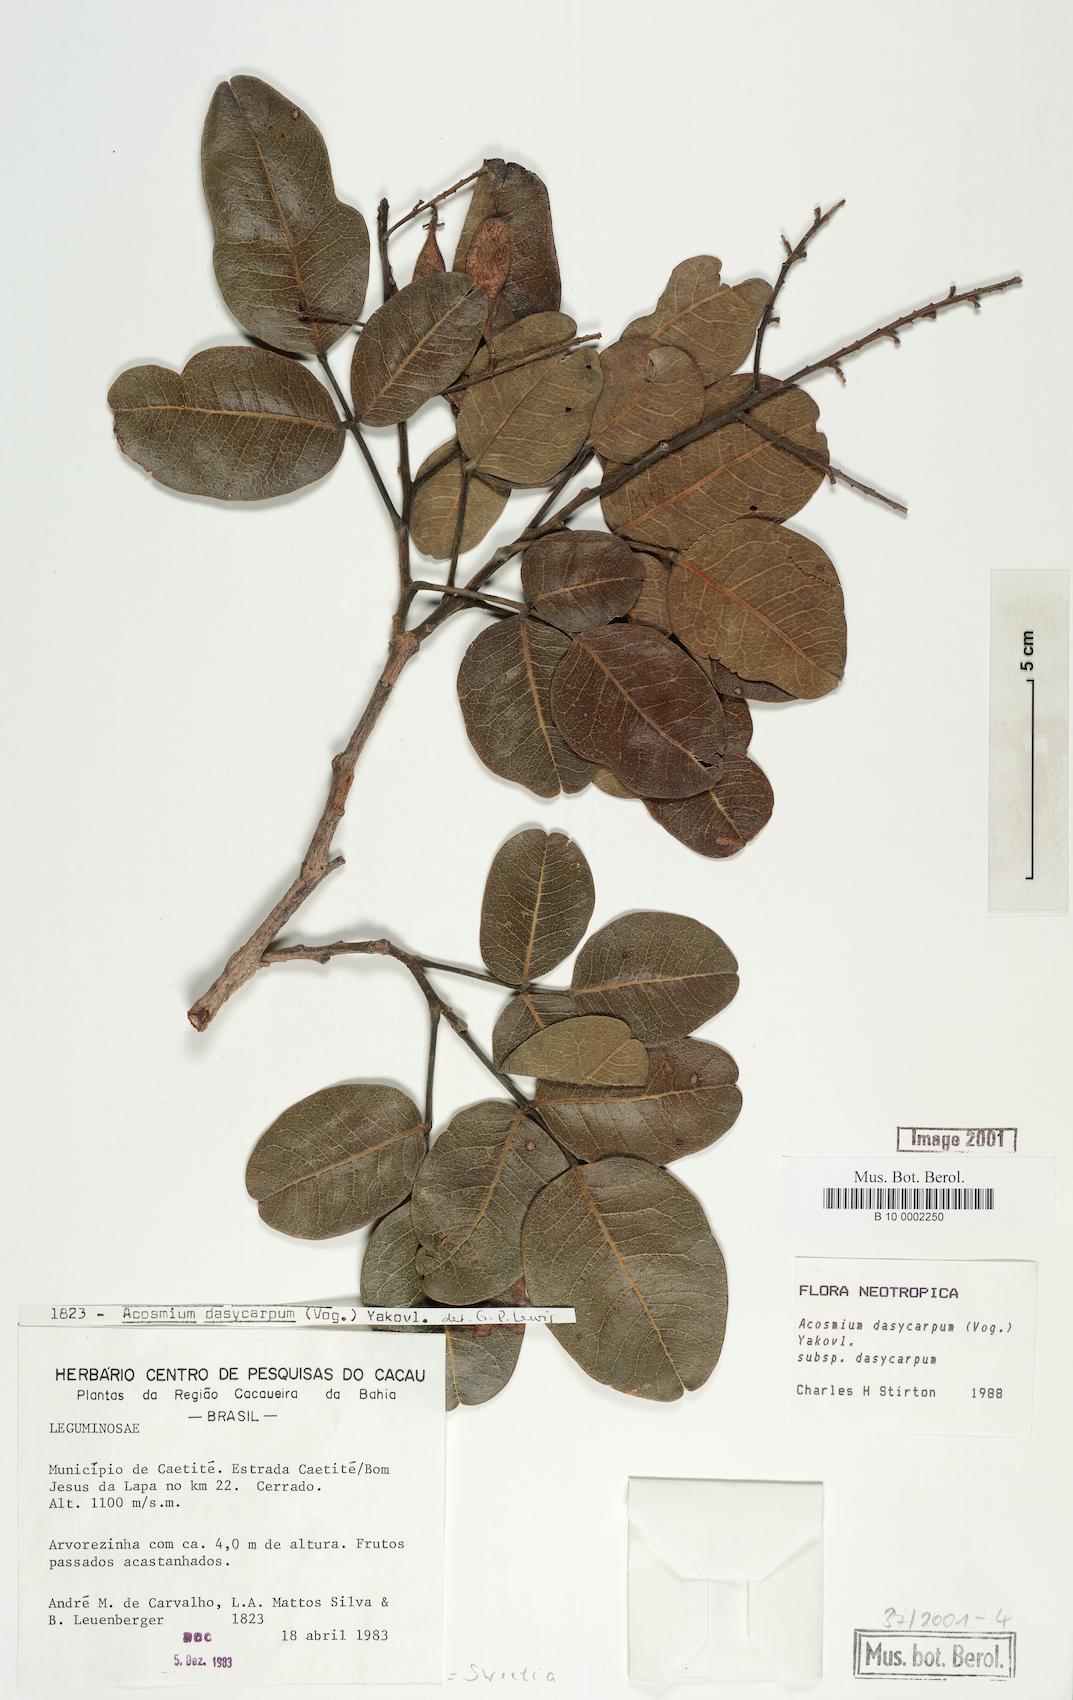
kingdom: Plantae
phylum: Tracheophyta
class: Magnoliopsida
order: Fabales
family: Fabaceae
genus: Leptolobium
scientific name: Leptolobium dasycarpum
